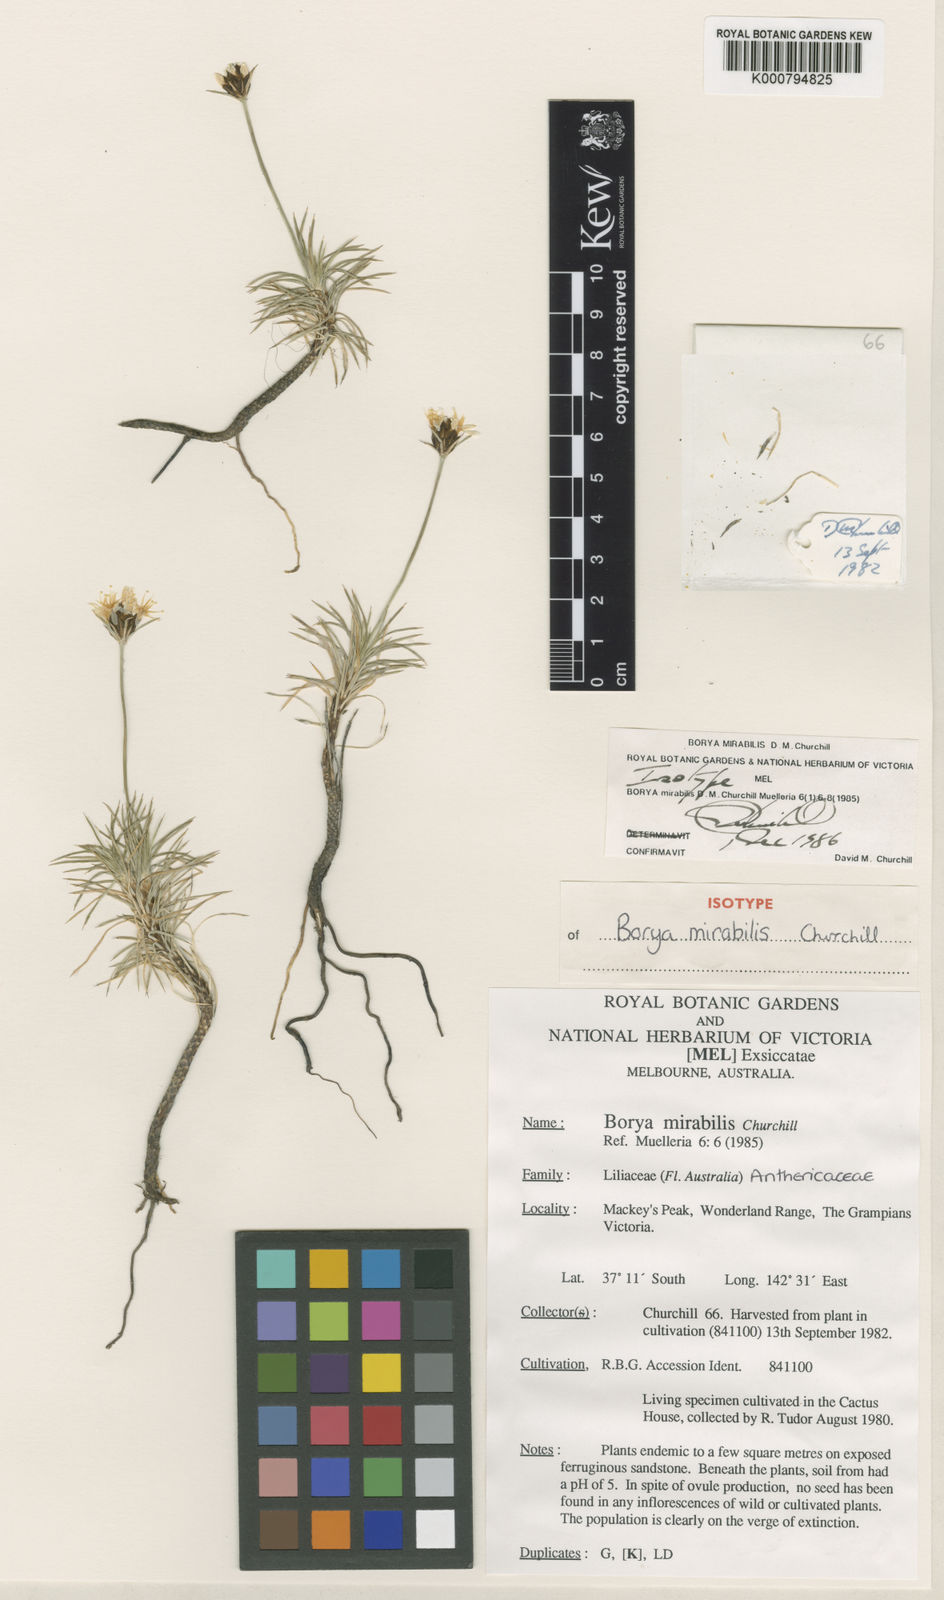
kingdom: Plantae
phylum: Tracheophyta
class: Liliopsida
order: Asparagales
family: Boryaceae
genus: Borya
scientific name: Borya mirabilis
